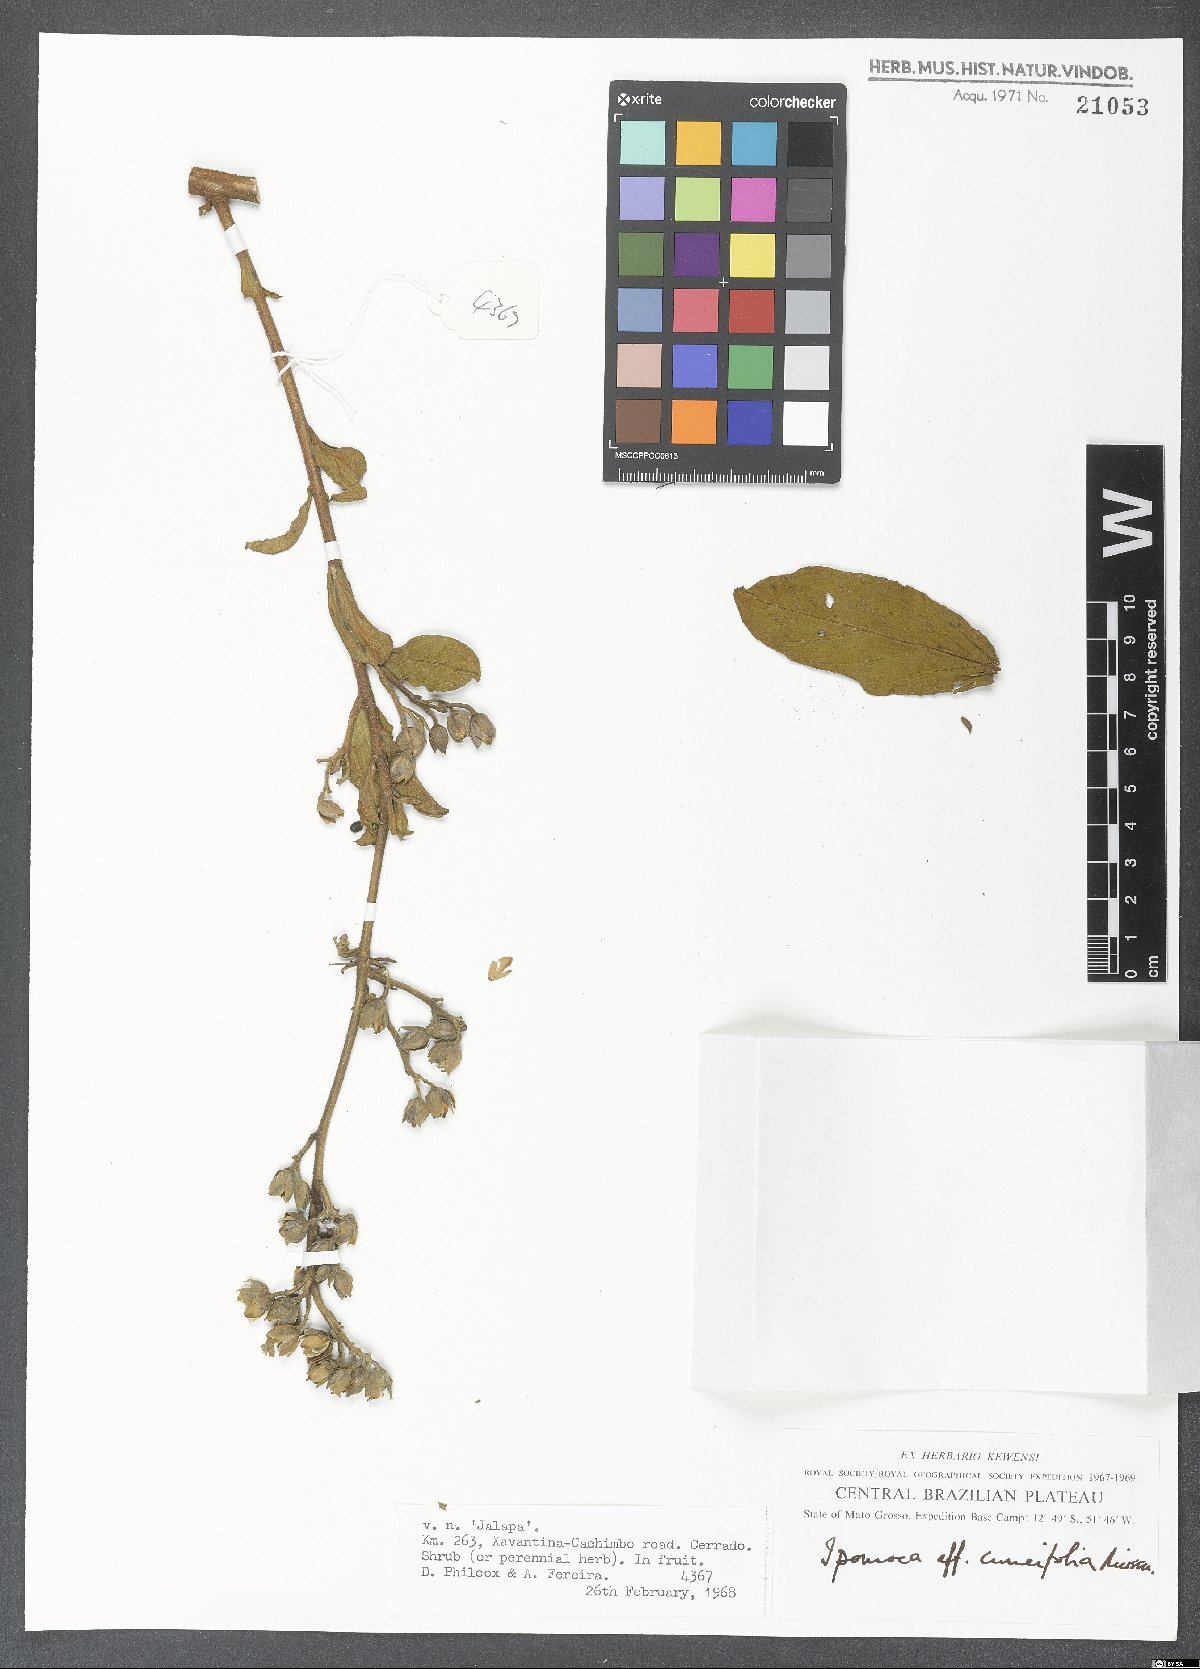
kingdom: Plantae
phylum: Tracheophyta
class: Magnoliopsida
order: Solanales
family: Convolvulaceae
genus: Ipomoea
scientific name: Ipomoea cuneifolia
